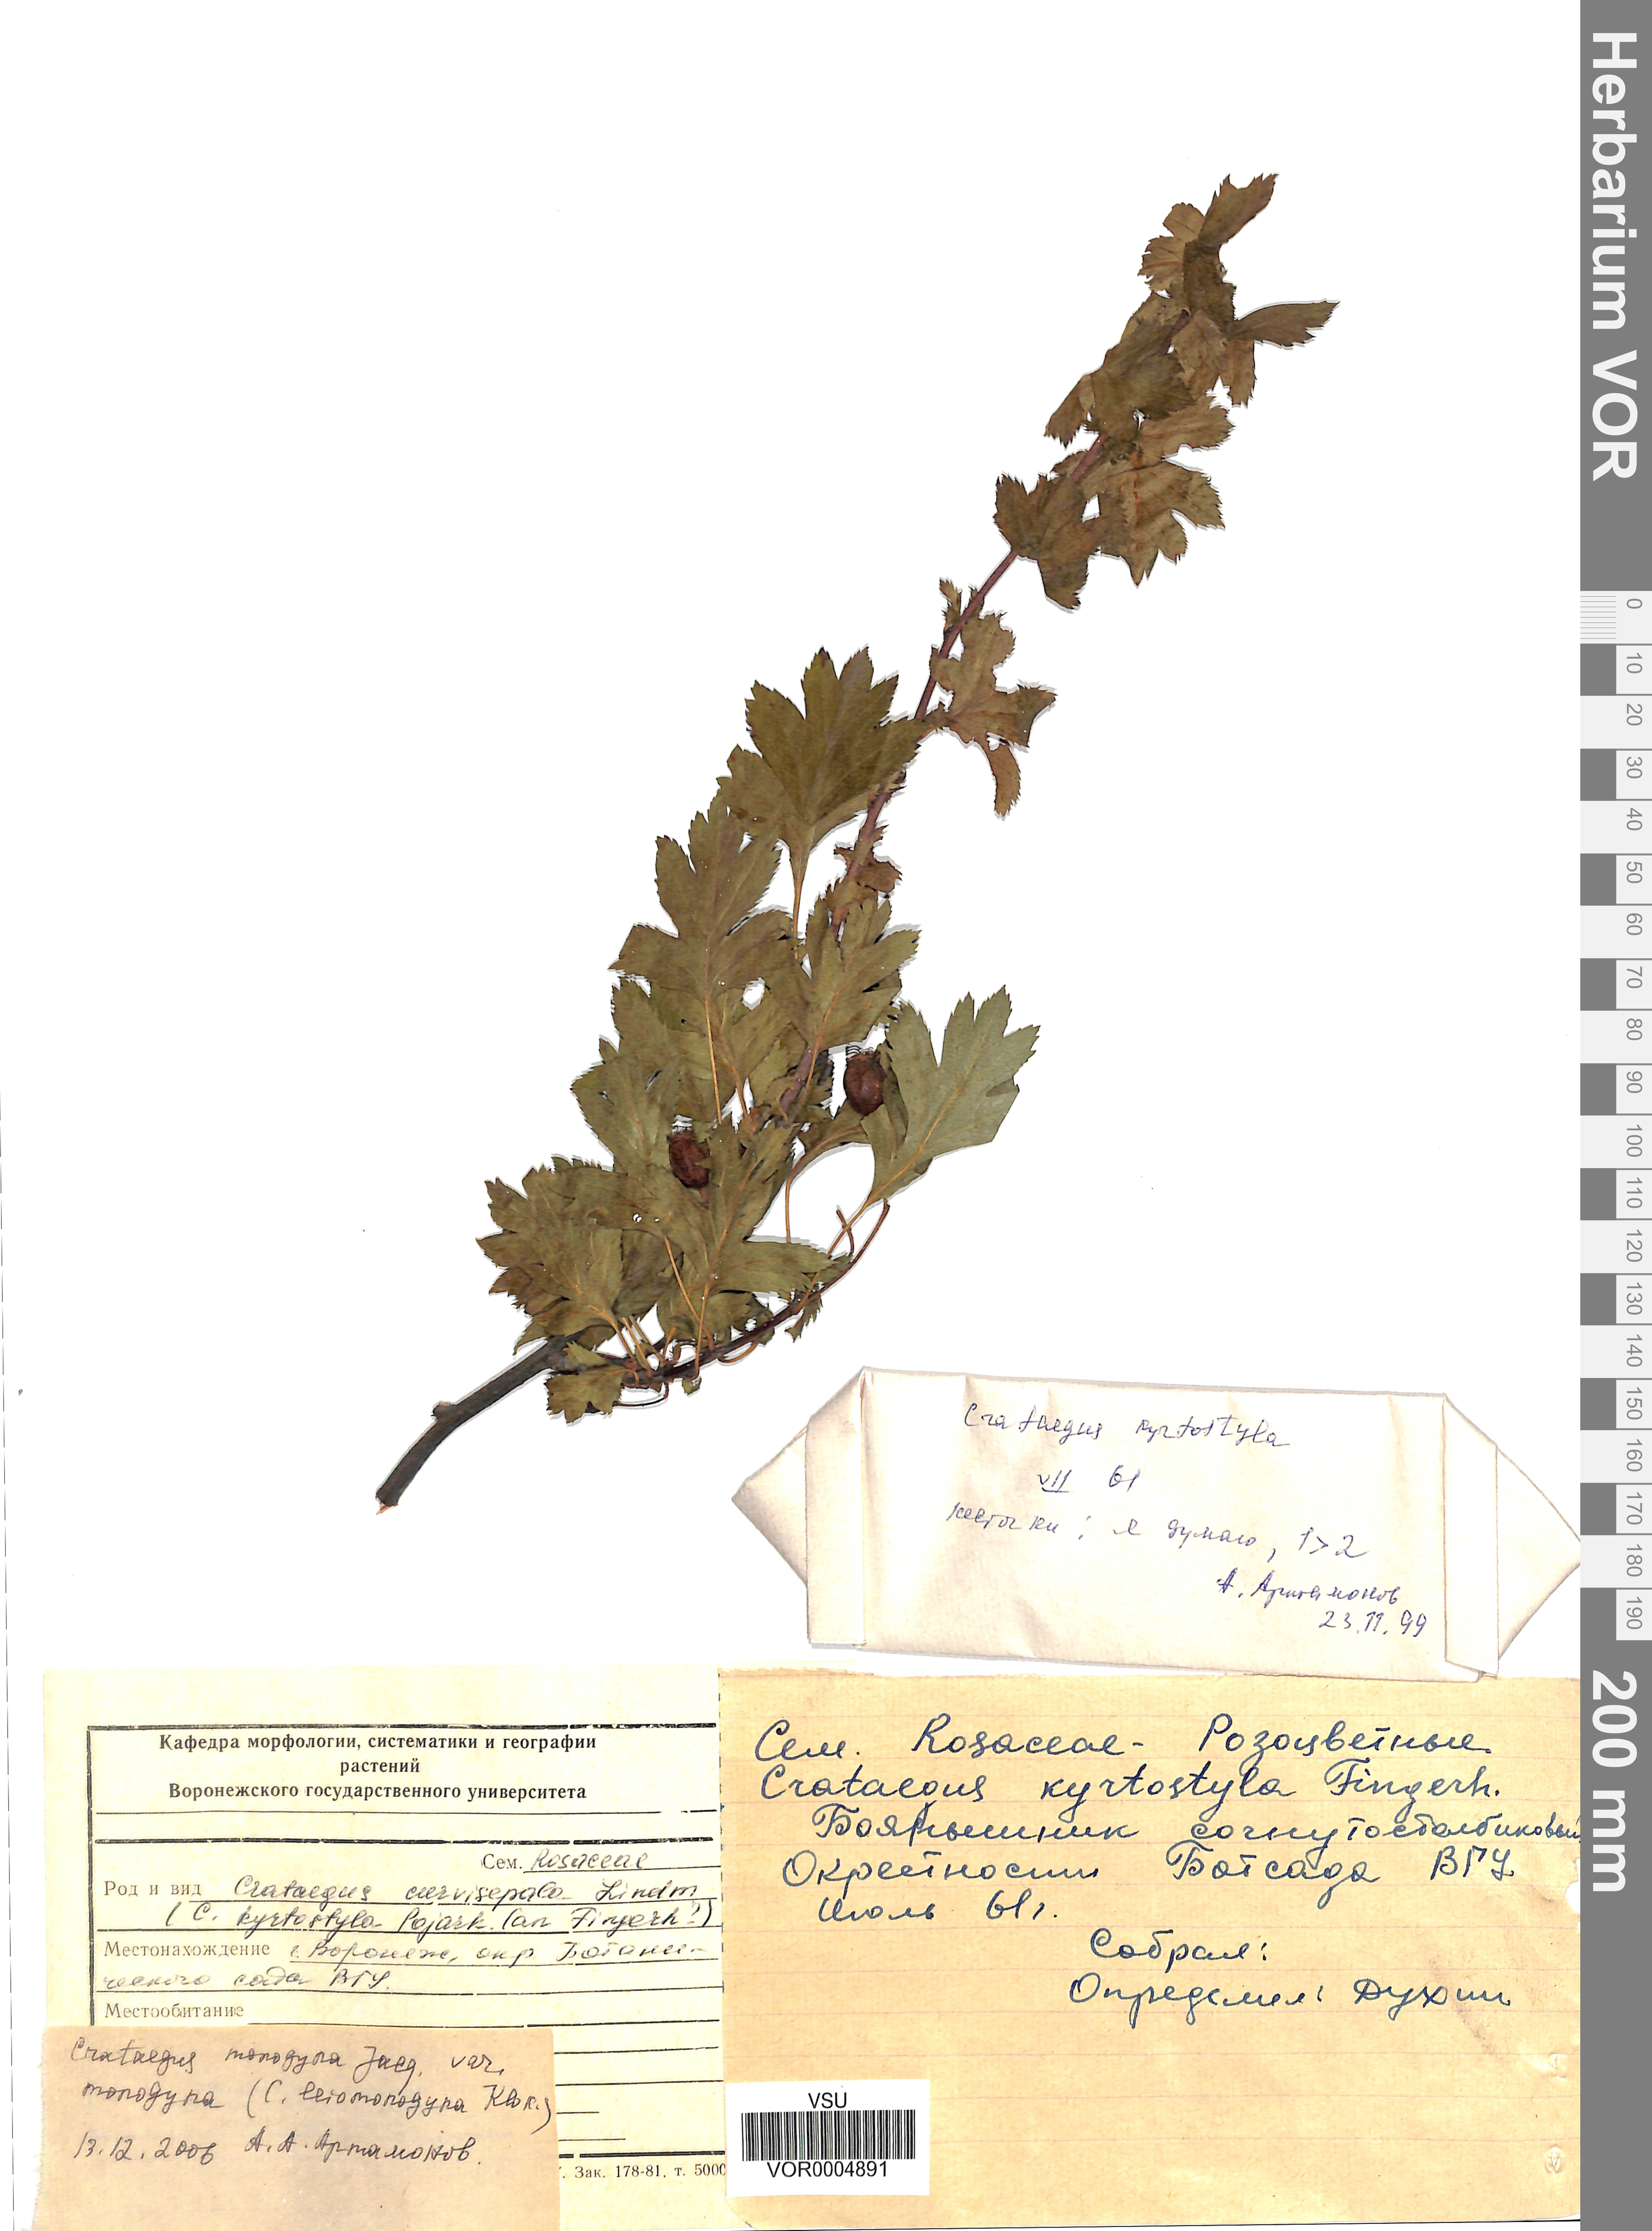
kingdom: Plantae
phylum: Tracheophyta
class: Magnoliopsida
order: Rosales
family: Rosaceae
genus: Crataegus
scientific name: Crataegus monogyna
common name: Hawthorn
